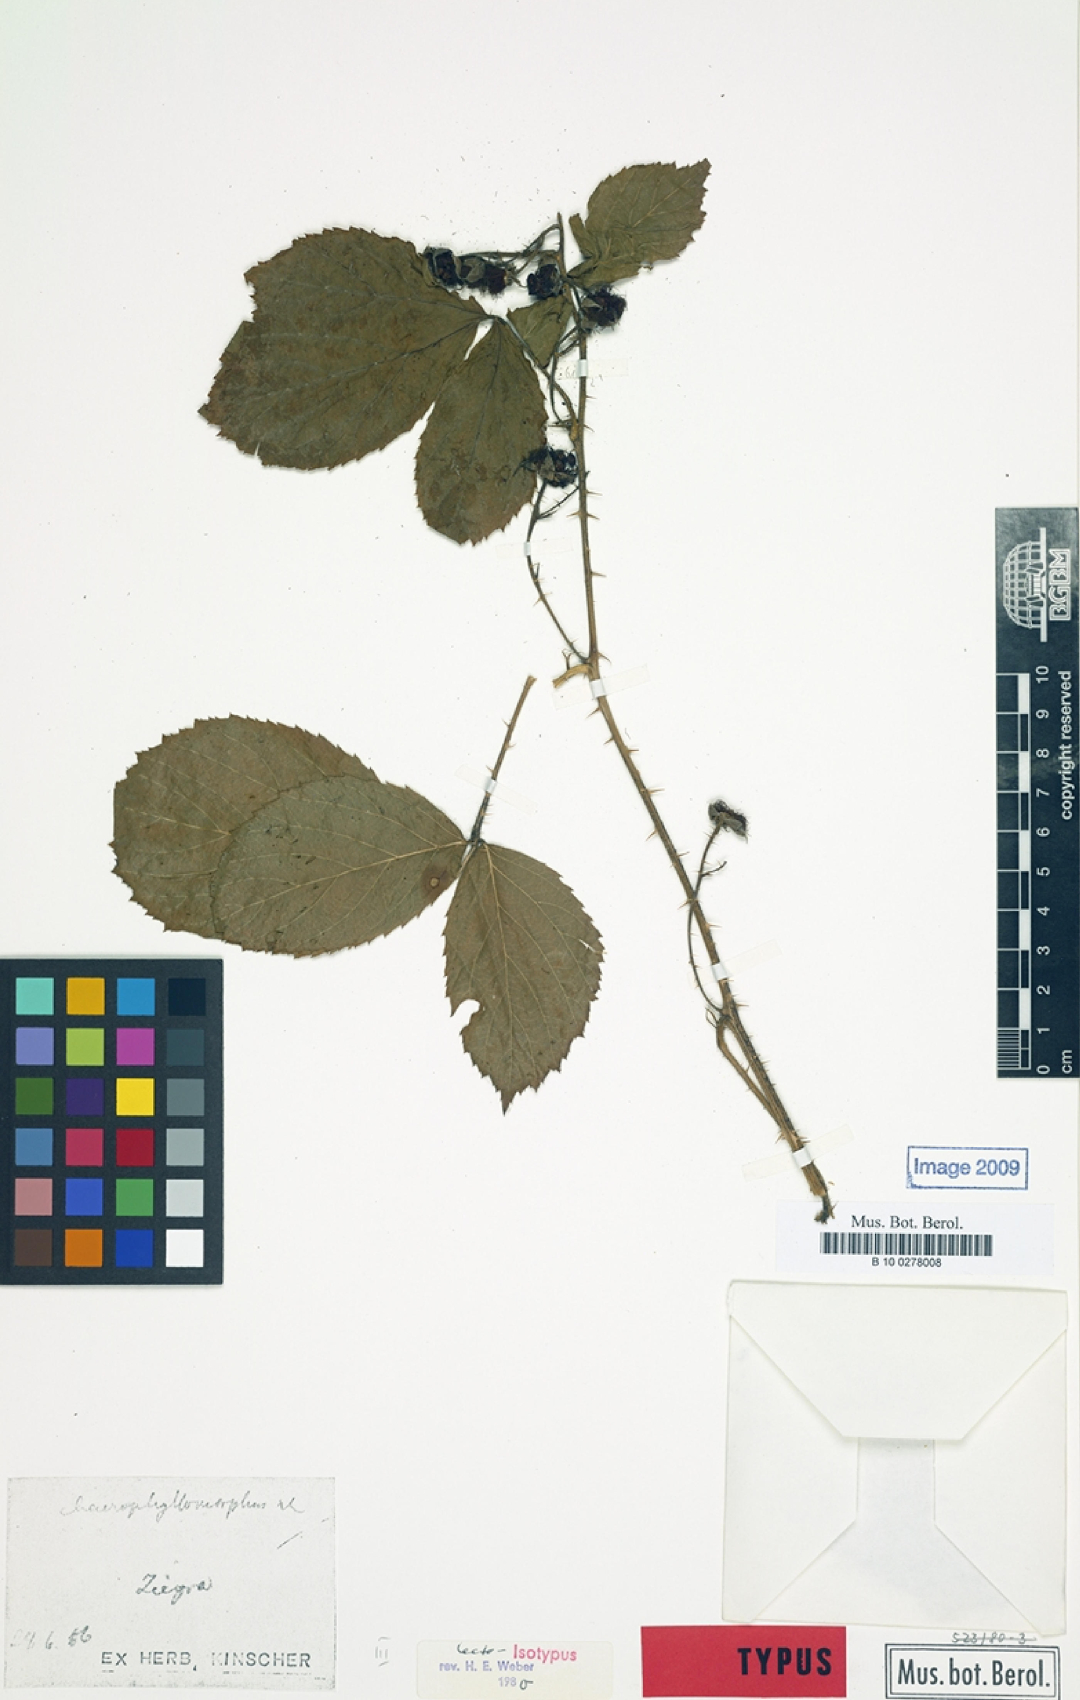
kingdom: Plantae
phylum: Tracheophyta
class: Magnoliopsida
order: Rosales
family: Rosaceae
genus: Rubus
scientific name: Rubus chaerophyllomorphus
